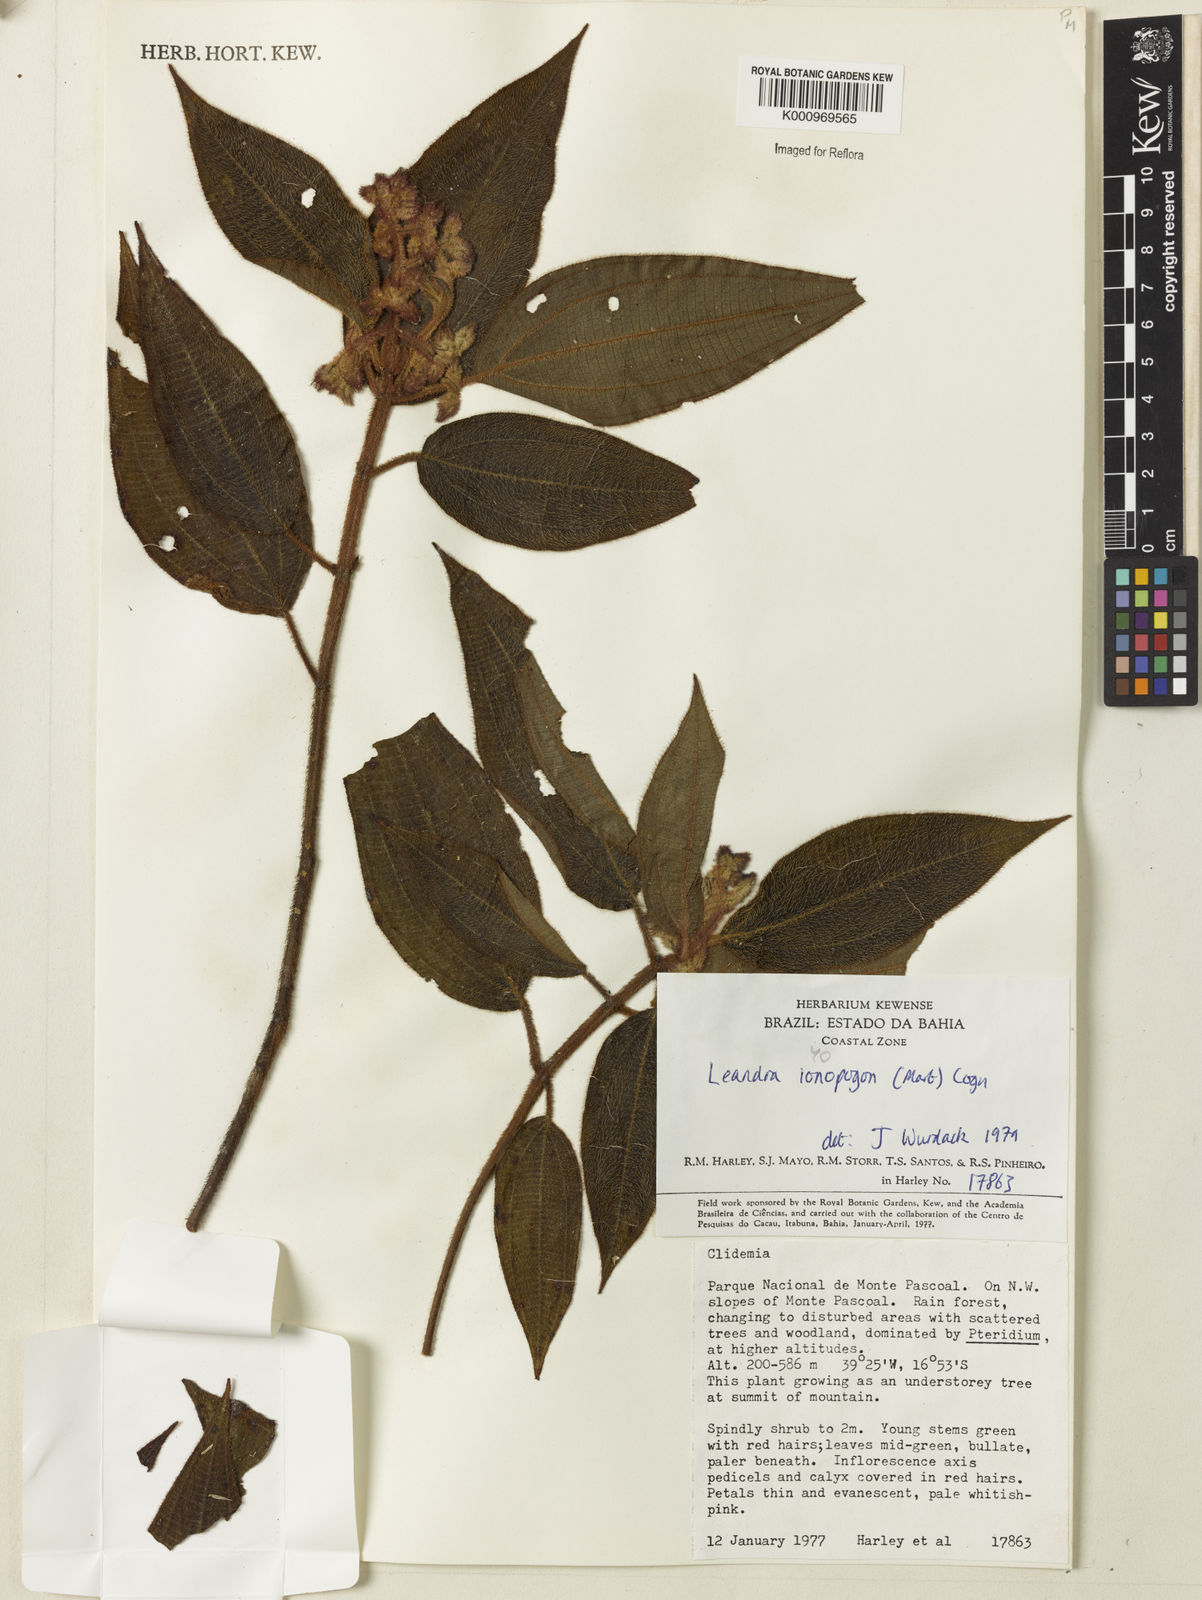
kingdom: Plantae
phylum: Tracheophyta
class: Magnoliopsida
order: Myrtales
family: Melastomataceae
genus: Miconia
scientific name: Miconia ionopogon
